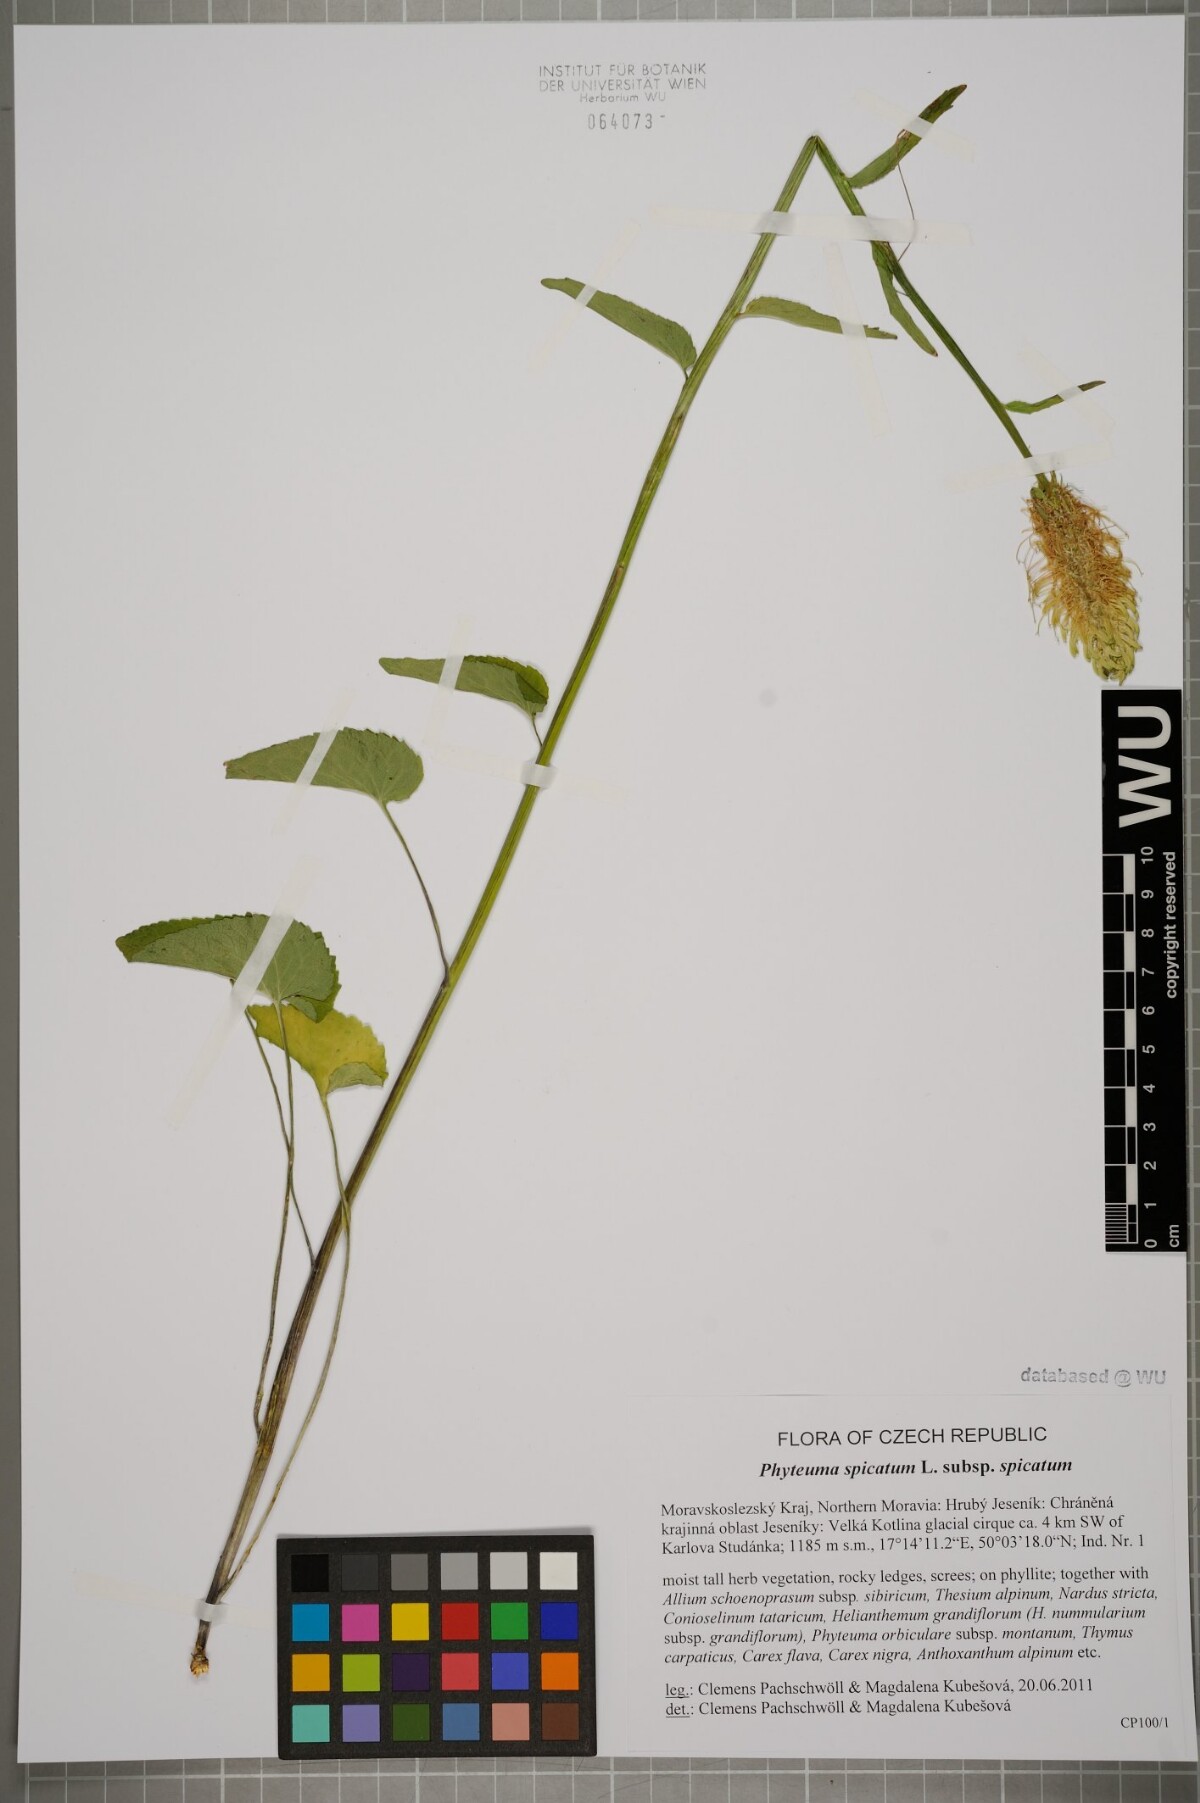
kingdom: Plantae
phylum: Tracheophyta
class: Magnoliopsida
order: Asterales
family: Campanulaceae
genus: Phyteuma
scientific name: Phyteuma spicatum
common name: Spiked rampion
